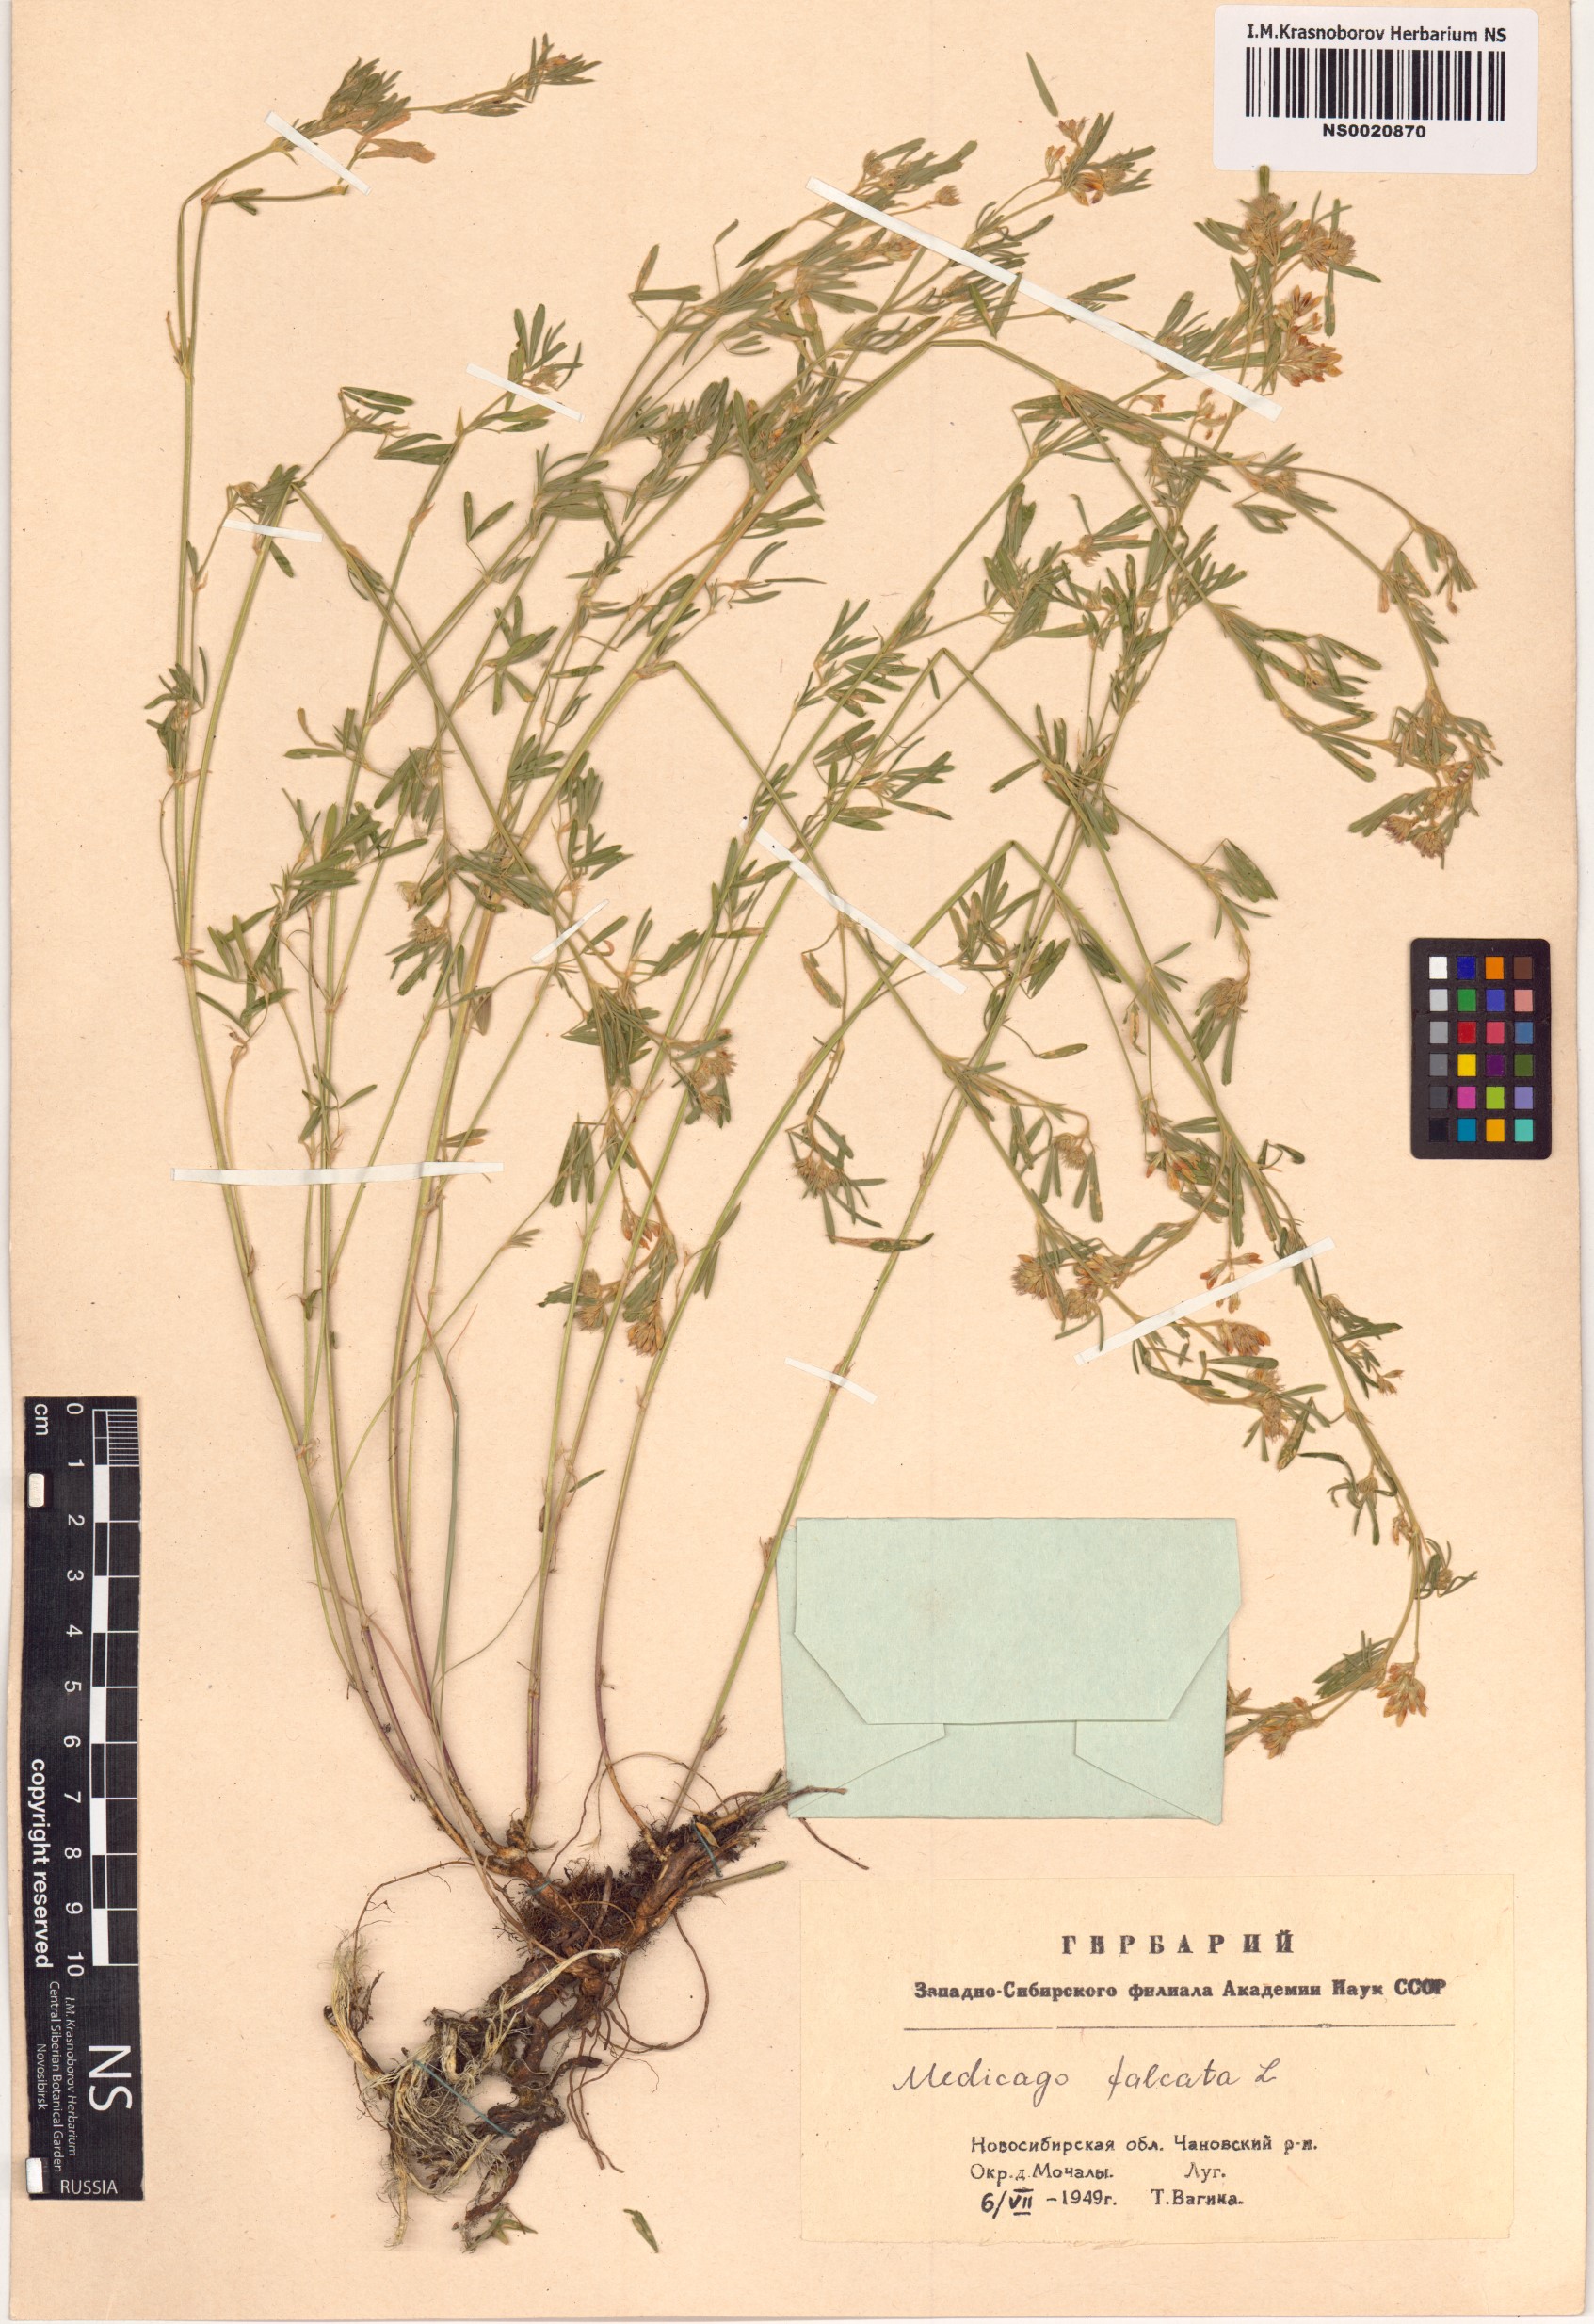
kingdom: Plantae
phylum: Tracheophyta
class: Magnoliopsida
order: Fabales
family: Fabaceae
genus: Medicago
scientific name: Medicago falcata
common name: Sickle medick
